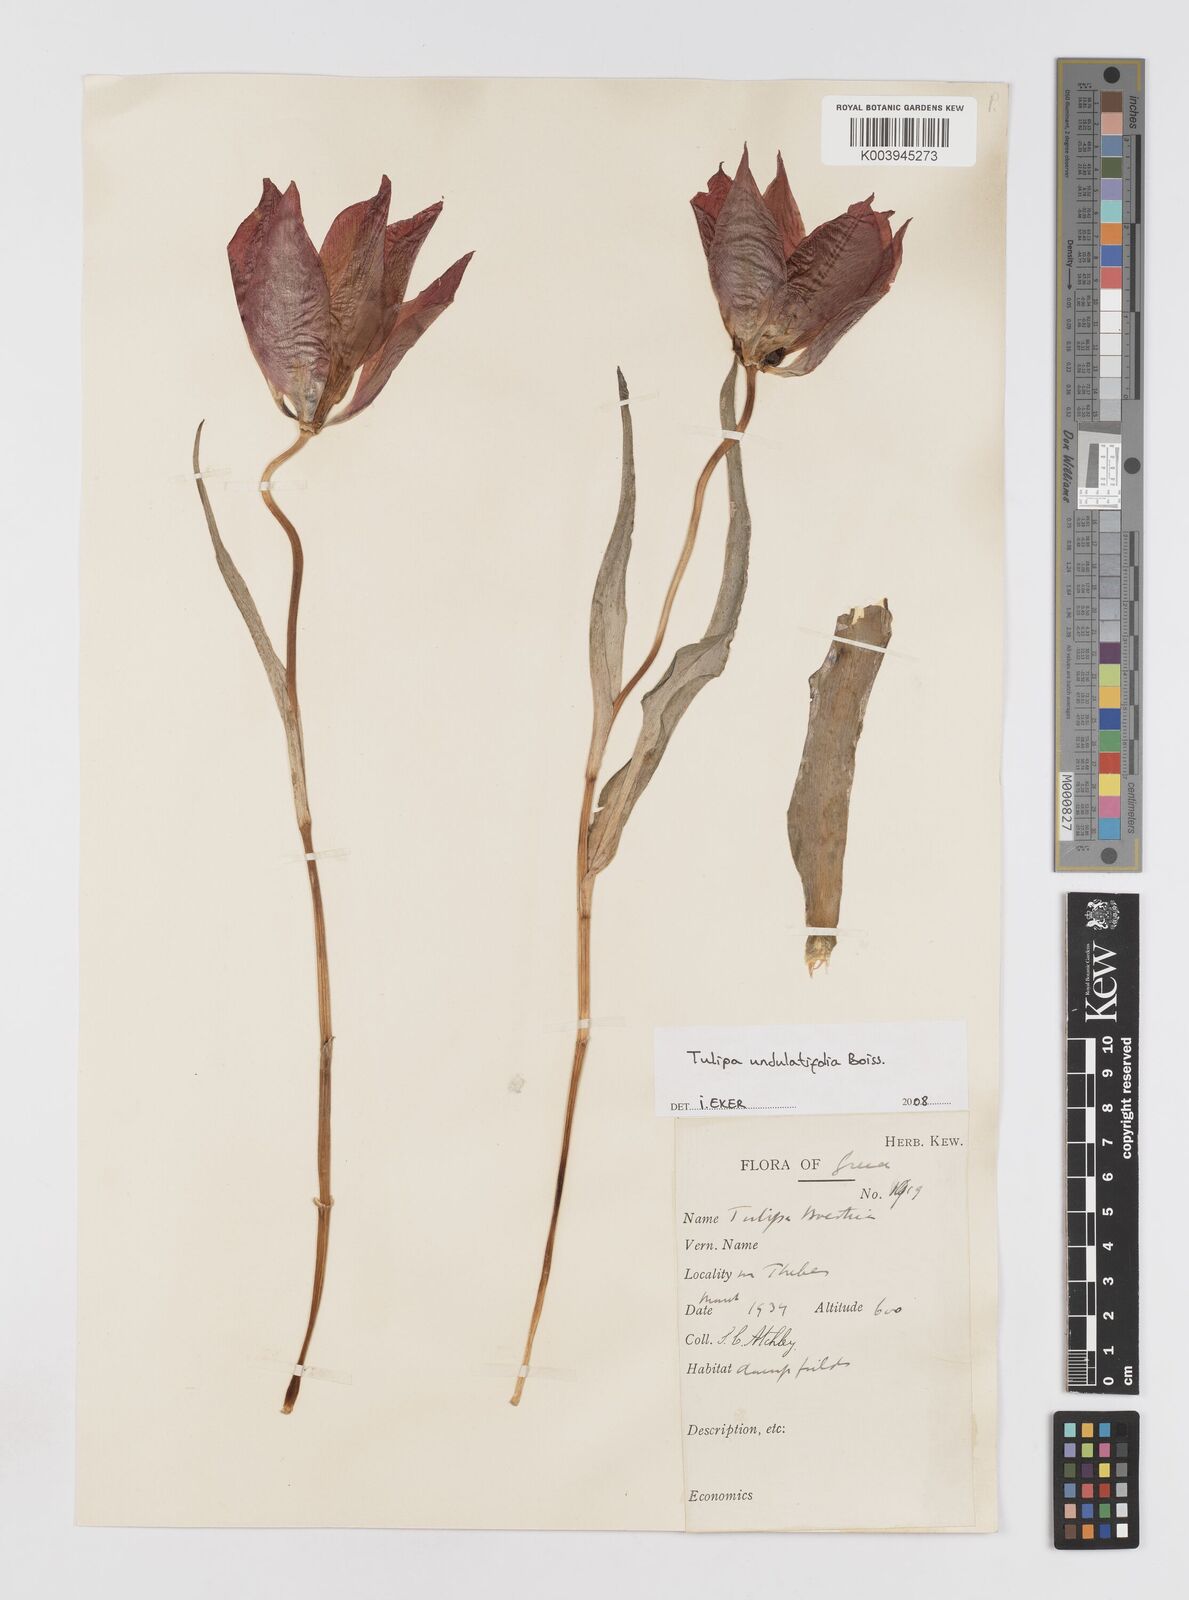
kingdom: Plantae
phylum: Tracheophyta
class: Liliopsida
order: Liliales
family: Liliaceae
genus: Tulipa
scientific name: Tulipa undulatifolia
